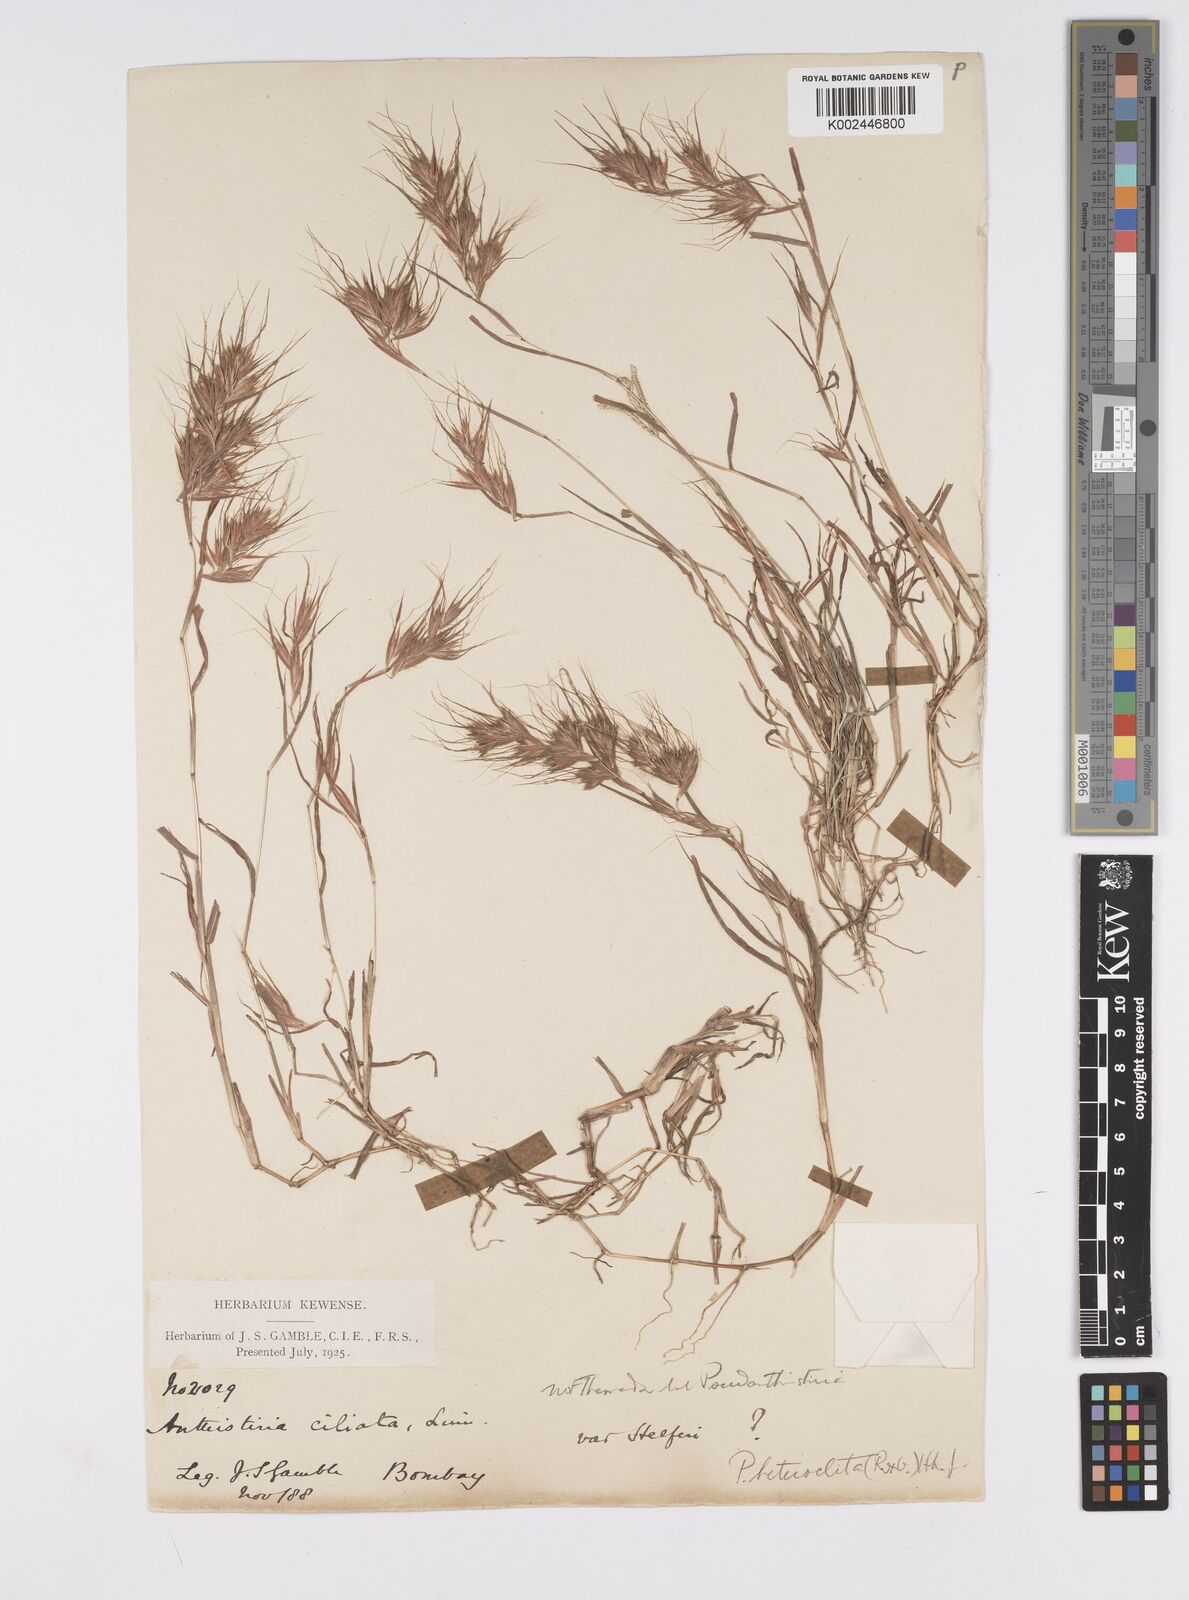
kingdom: Plantae
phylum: Tracheophyta
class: Liliopsida
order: Poales
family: Poaceae
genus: Pseudanthistiria
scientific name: Pseudanthistiria heteroclita
